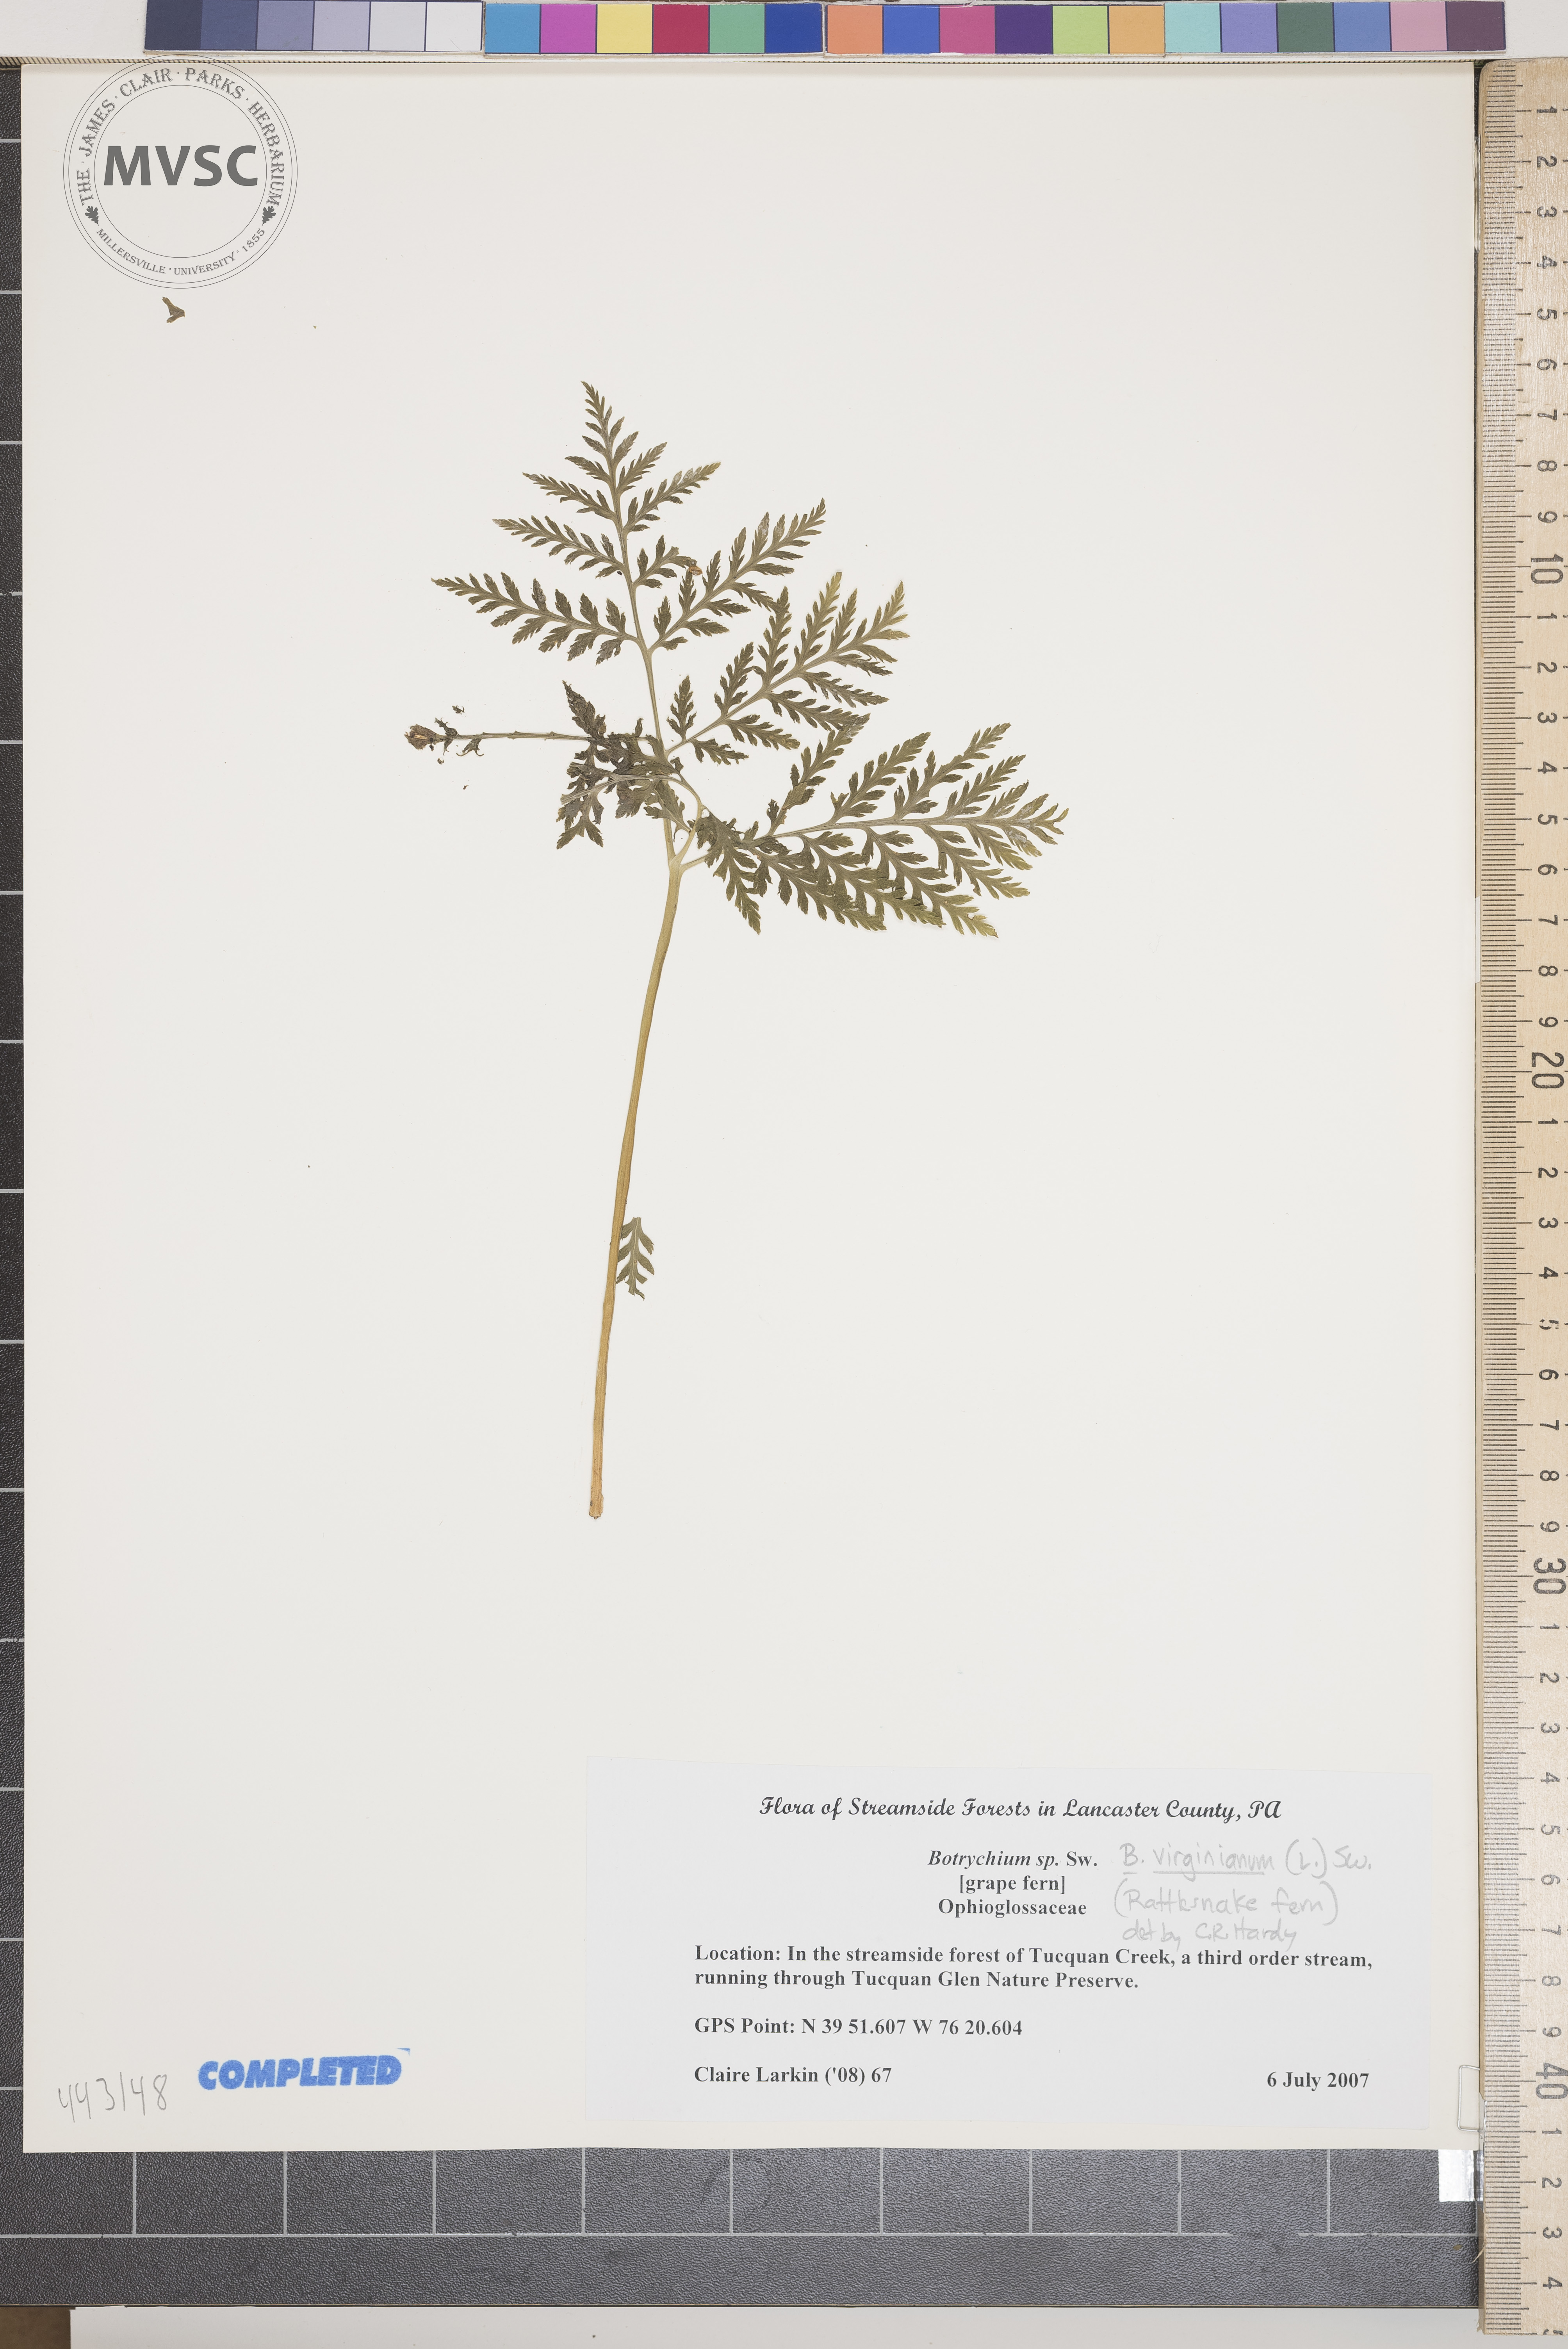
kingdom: Plantae
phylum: Tracheophyta
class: Polypodiopsida
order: Ophioglossales
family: Ophioglossaceae
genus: Botrypus
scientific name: Botrypus virginianus
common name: Common grapefern
